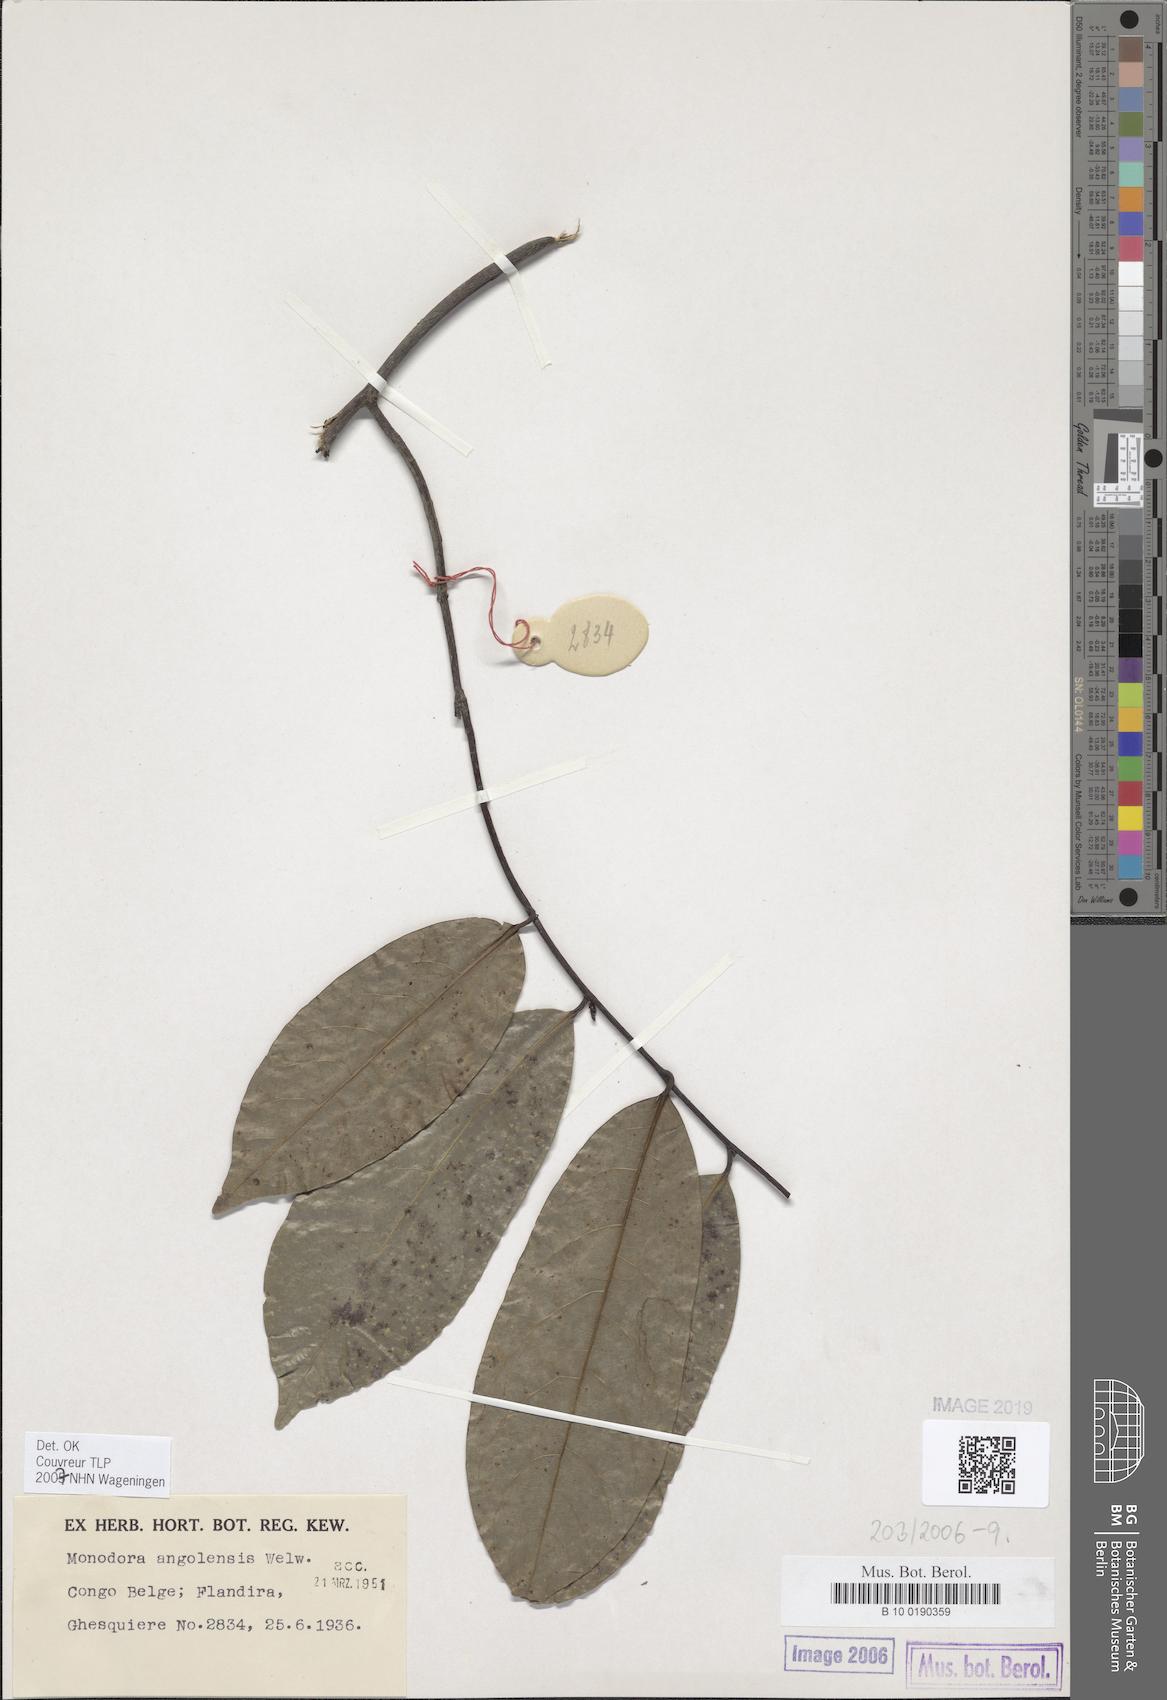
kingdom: Plantae
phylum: Tracheophyta
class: Magnoliopsida
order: Magnoliales
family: Annonaceae
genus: Monodora
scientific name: Monodora angolensis
